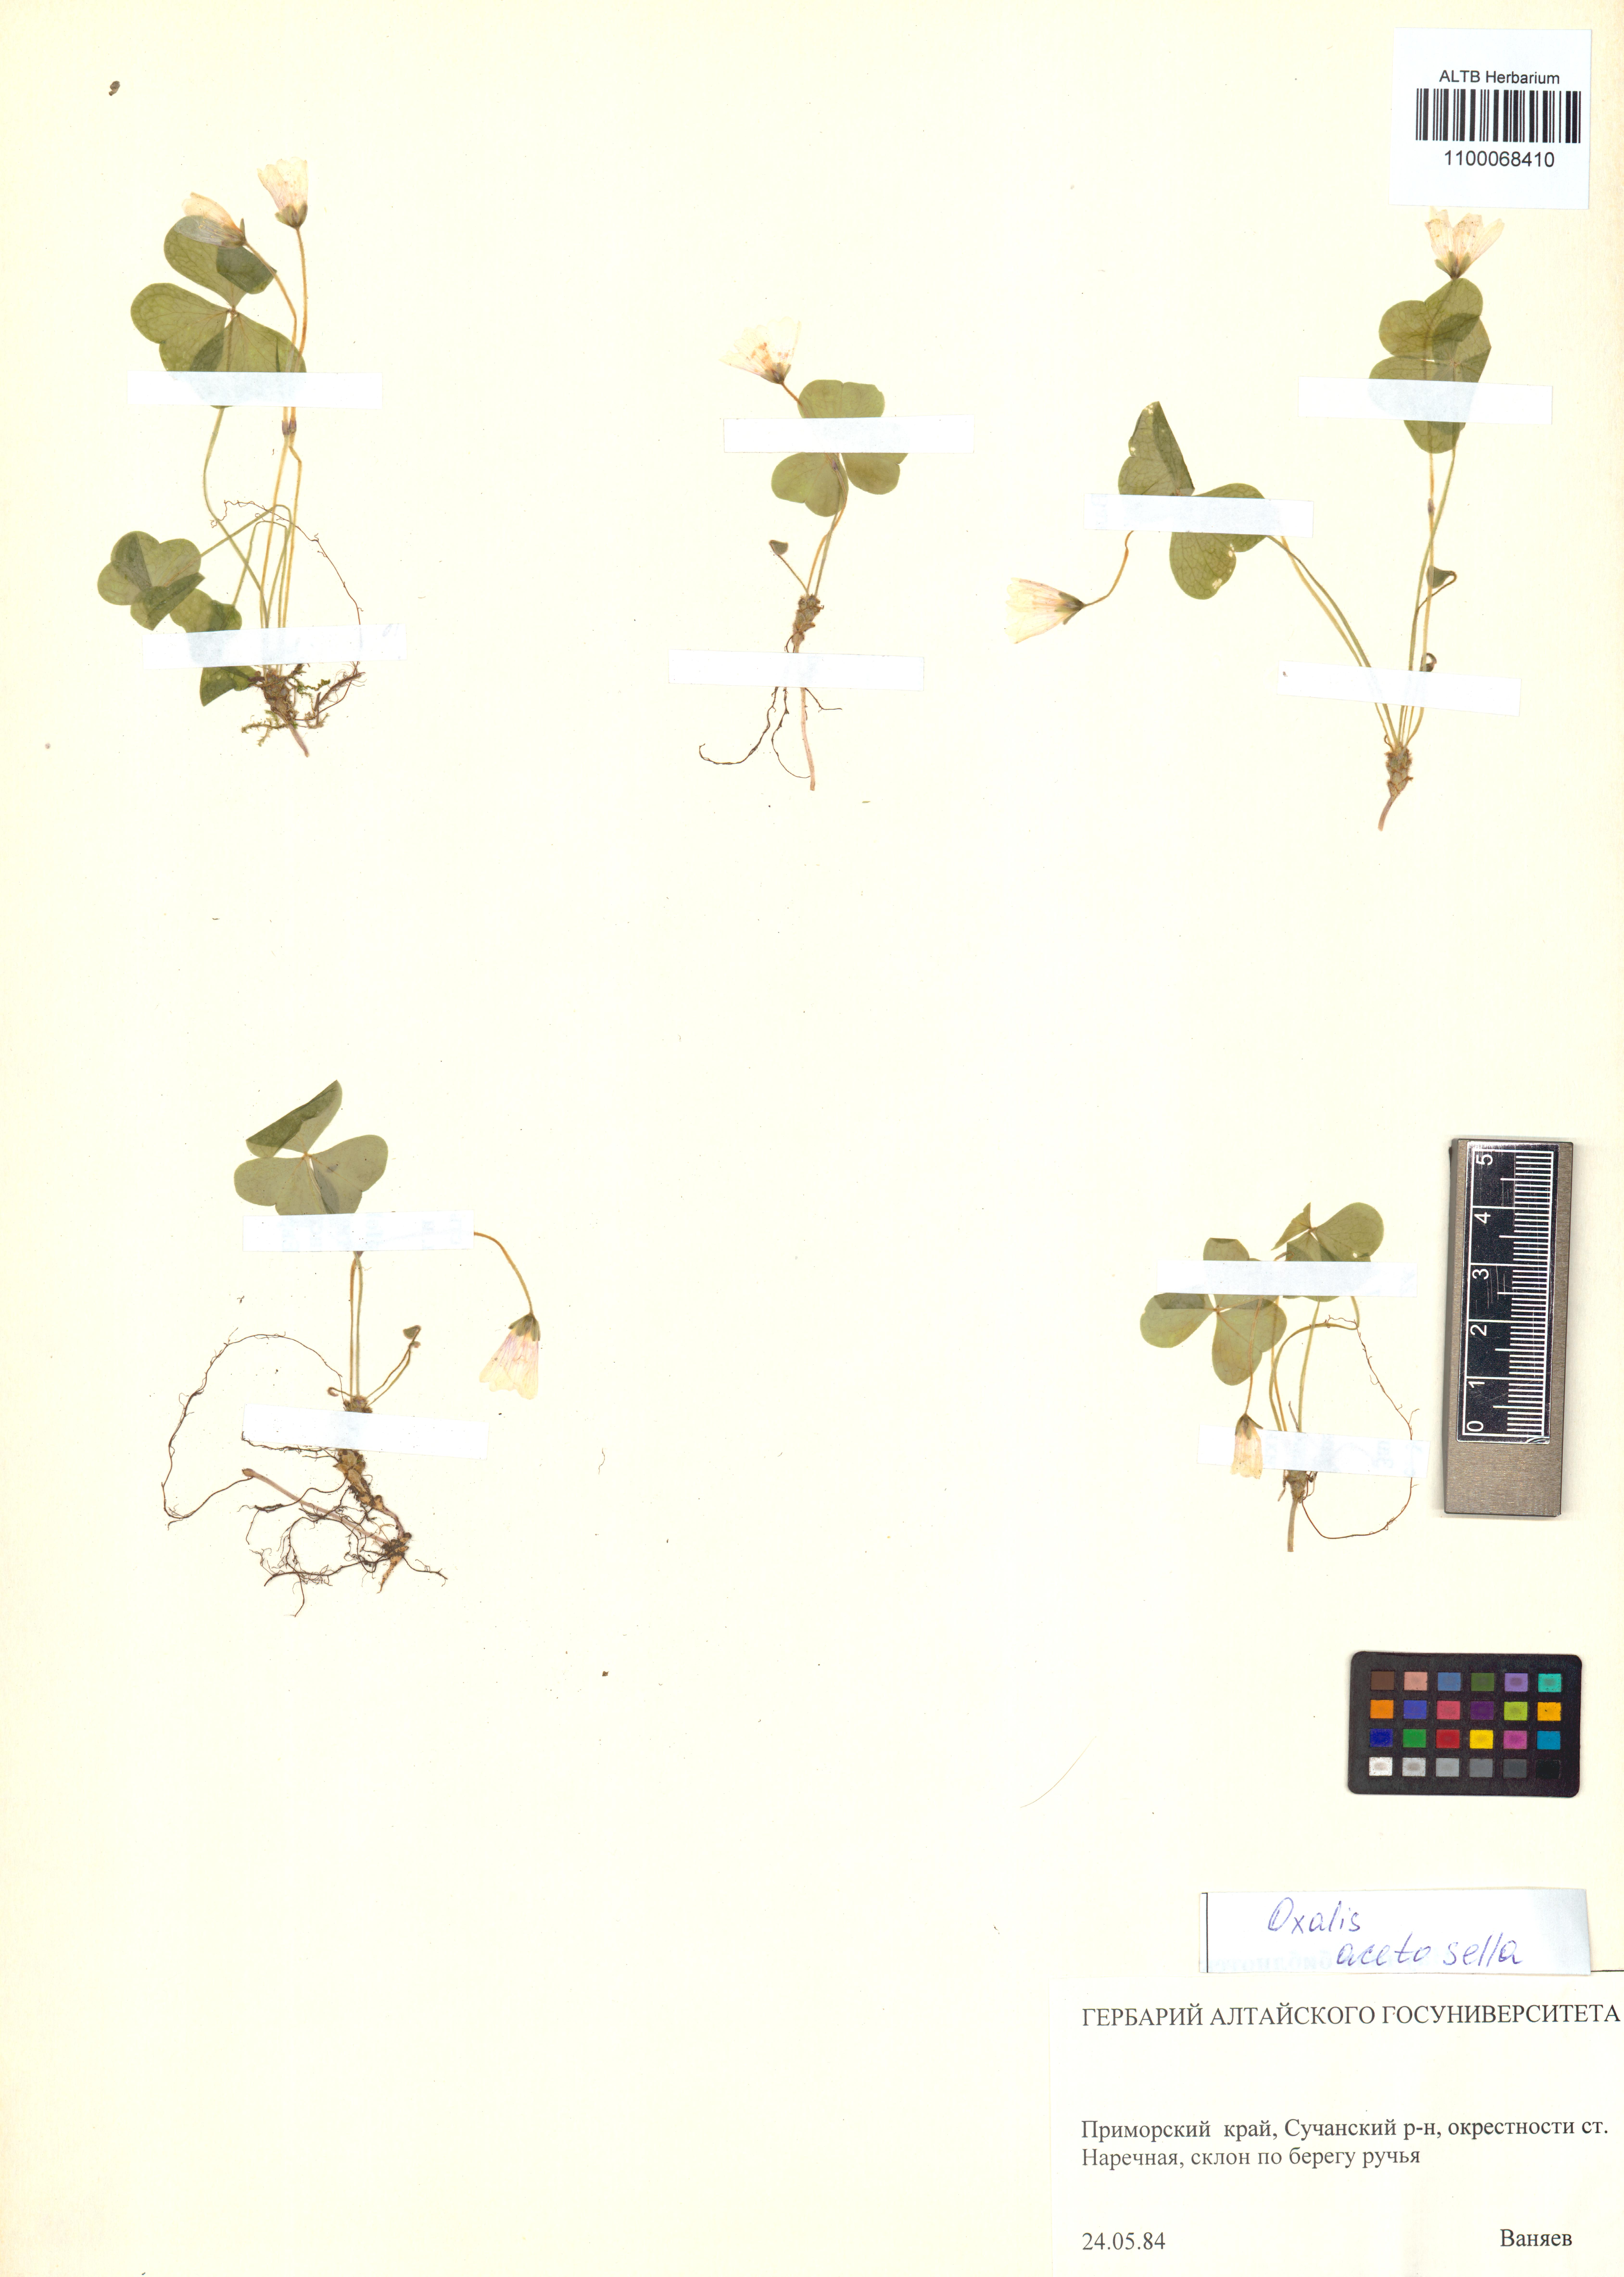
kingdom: Plantae
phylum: Tracheophyta
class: Magnoliopsida
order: Oxalidales
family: Oxalidaceae
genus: Oxalis
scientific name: Oxalis acetosella
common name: Wood-sorrel
